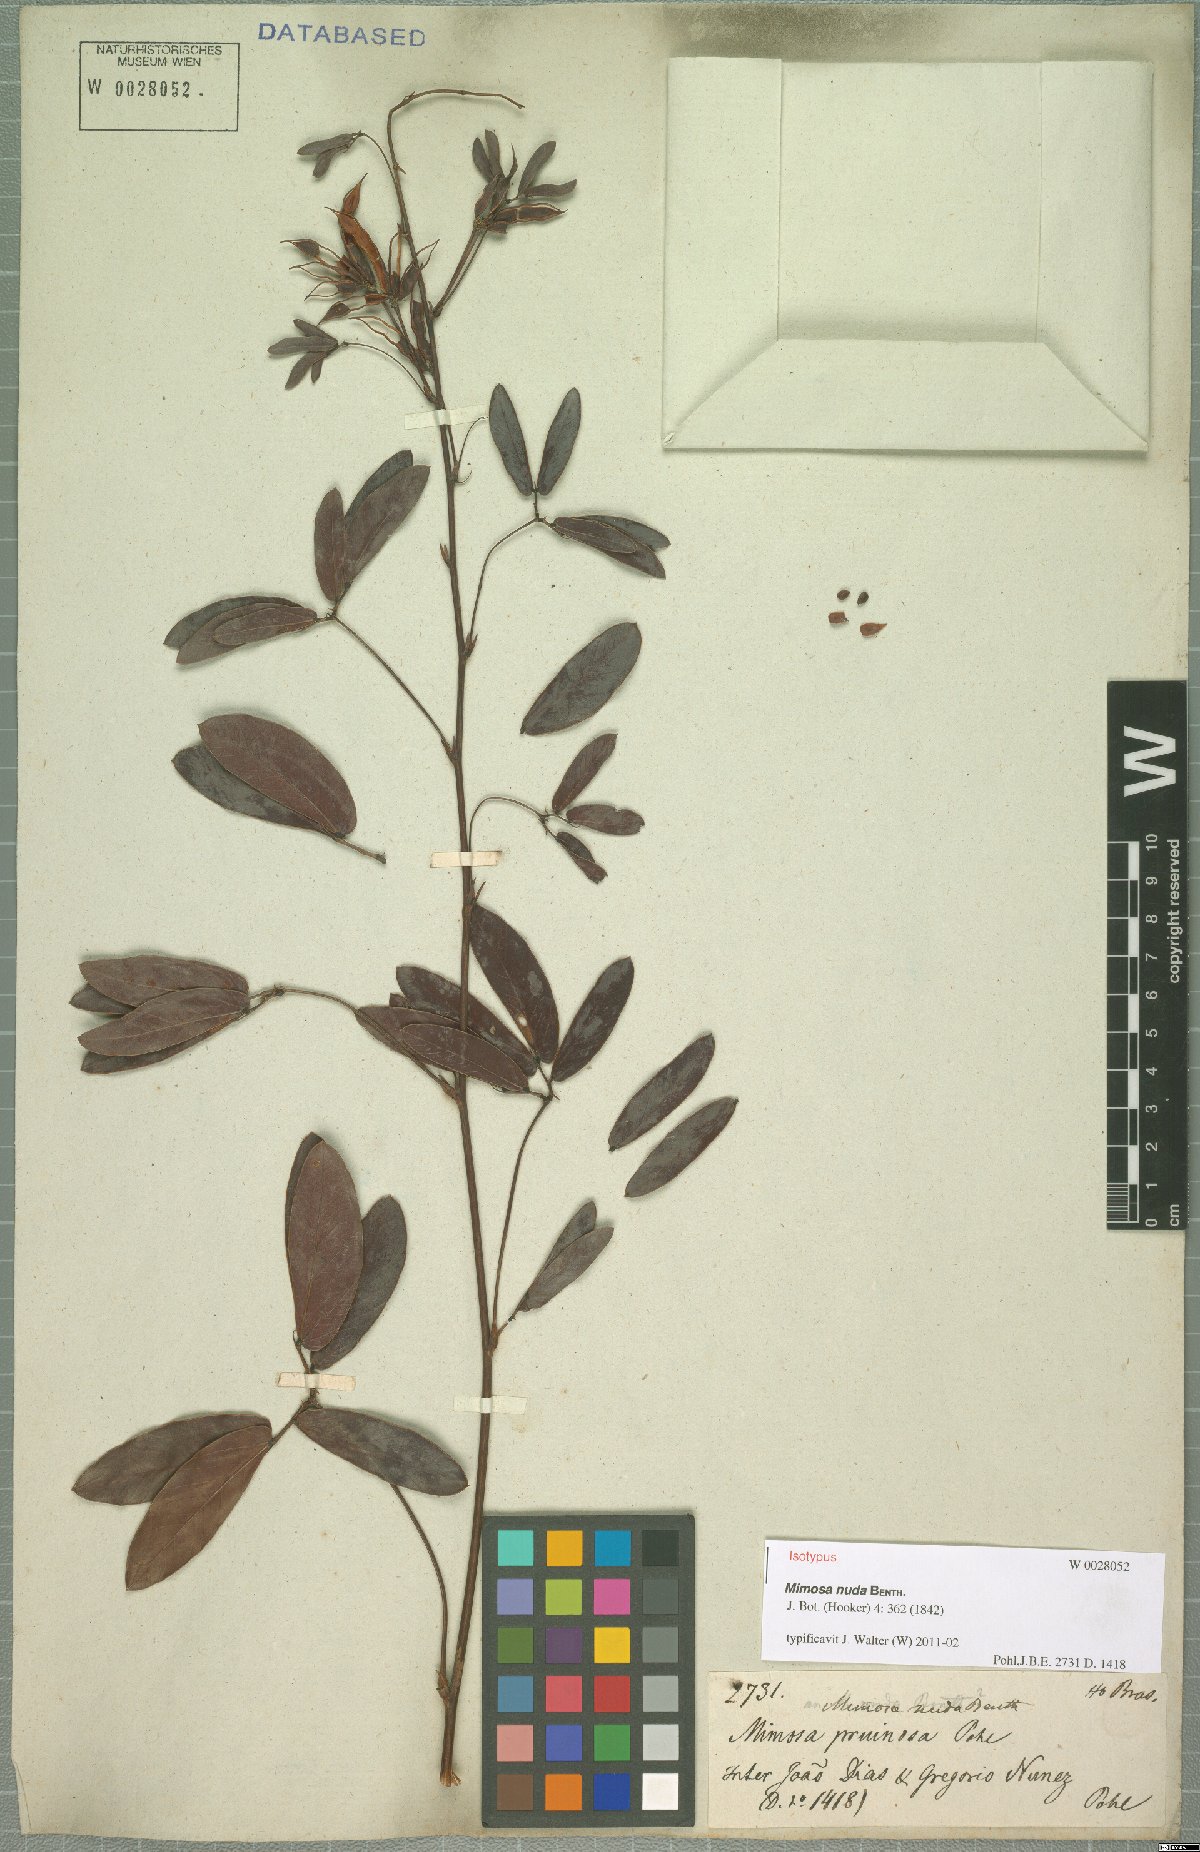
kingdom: Plantae
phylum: Tracheophyta
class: Magnoliopsida
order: Fabales
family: Fabaceae
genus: Mimosa
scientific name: Mimosa debilis
